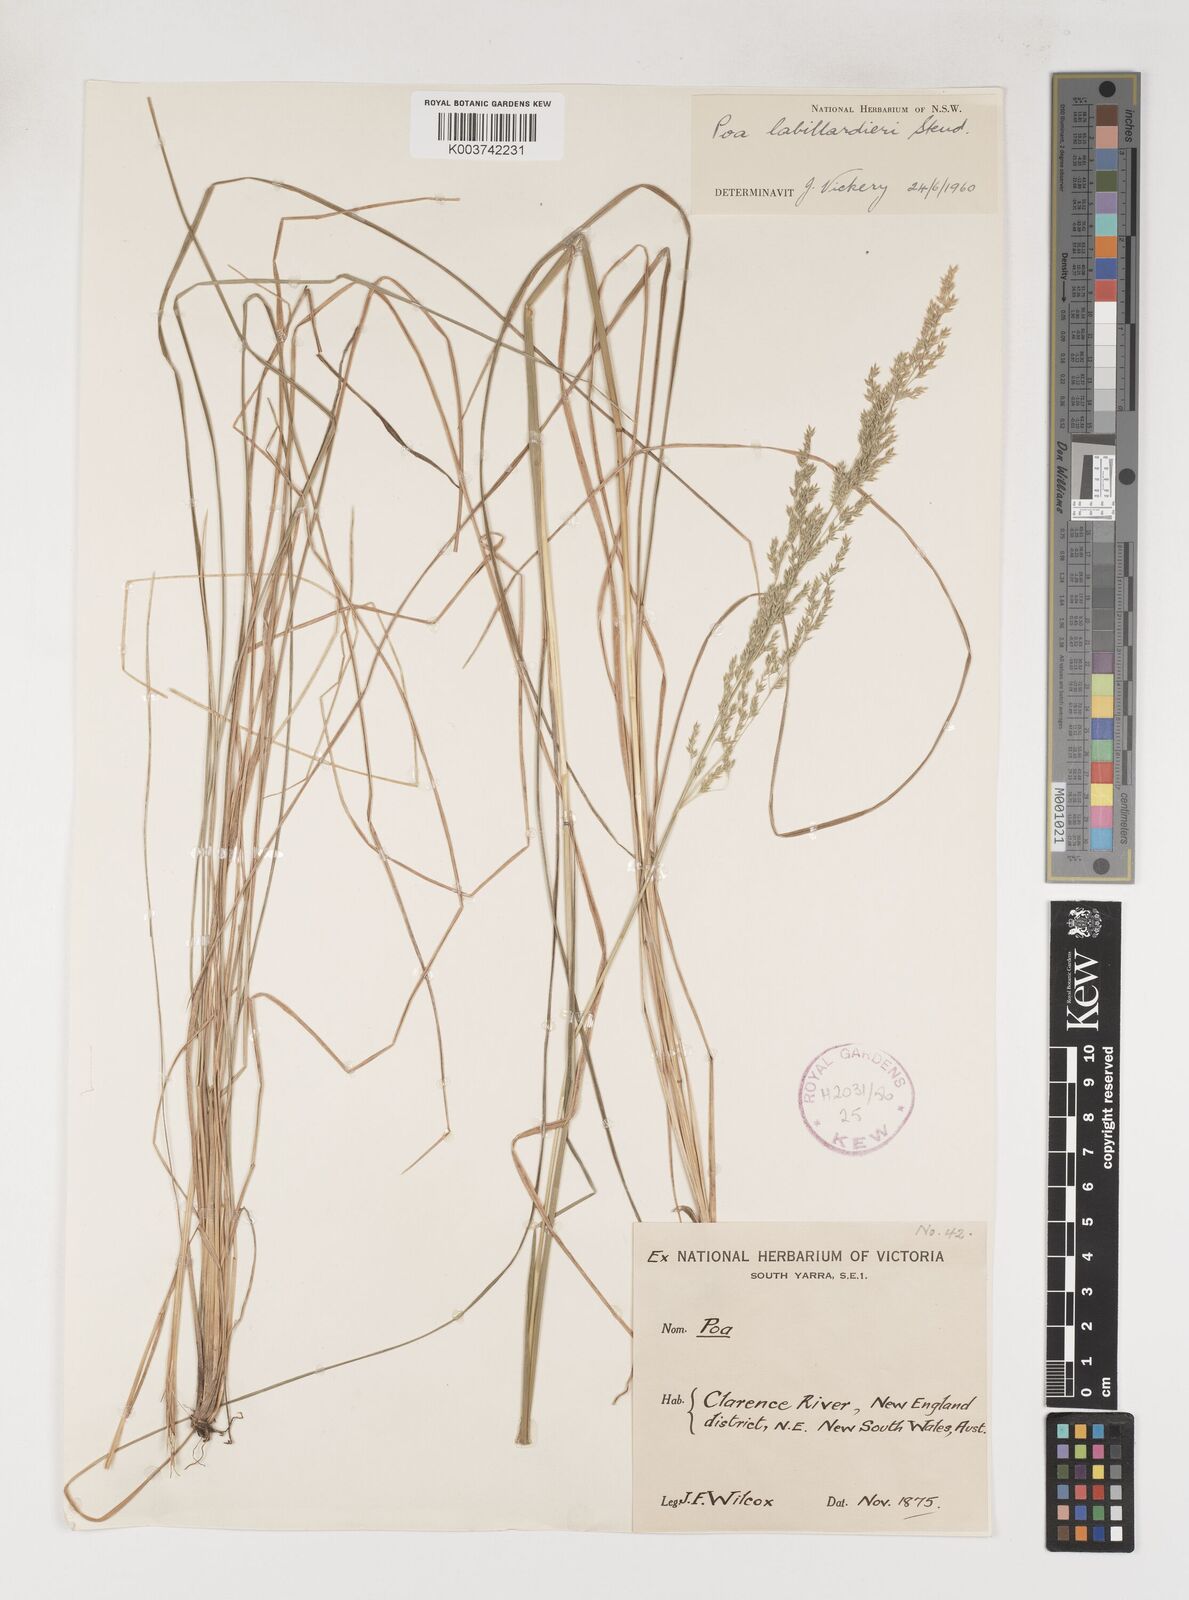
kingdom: Plantae
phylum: Tracheophyta
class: Liliopsida
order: Poales
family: Poaceae
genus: Poa
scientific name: Poa labillardierei
